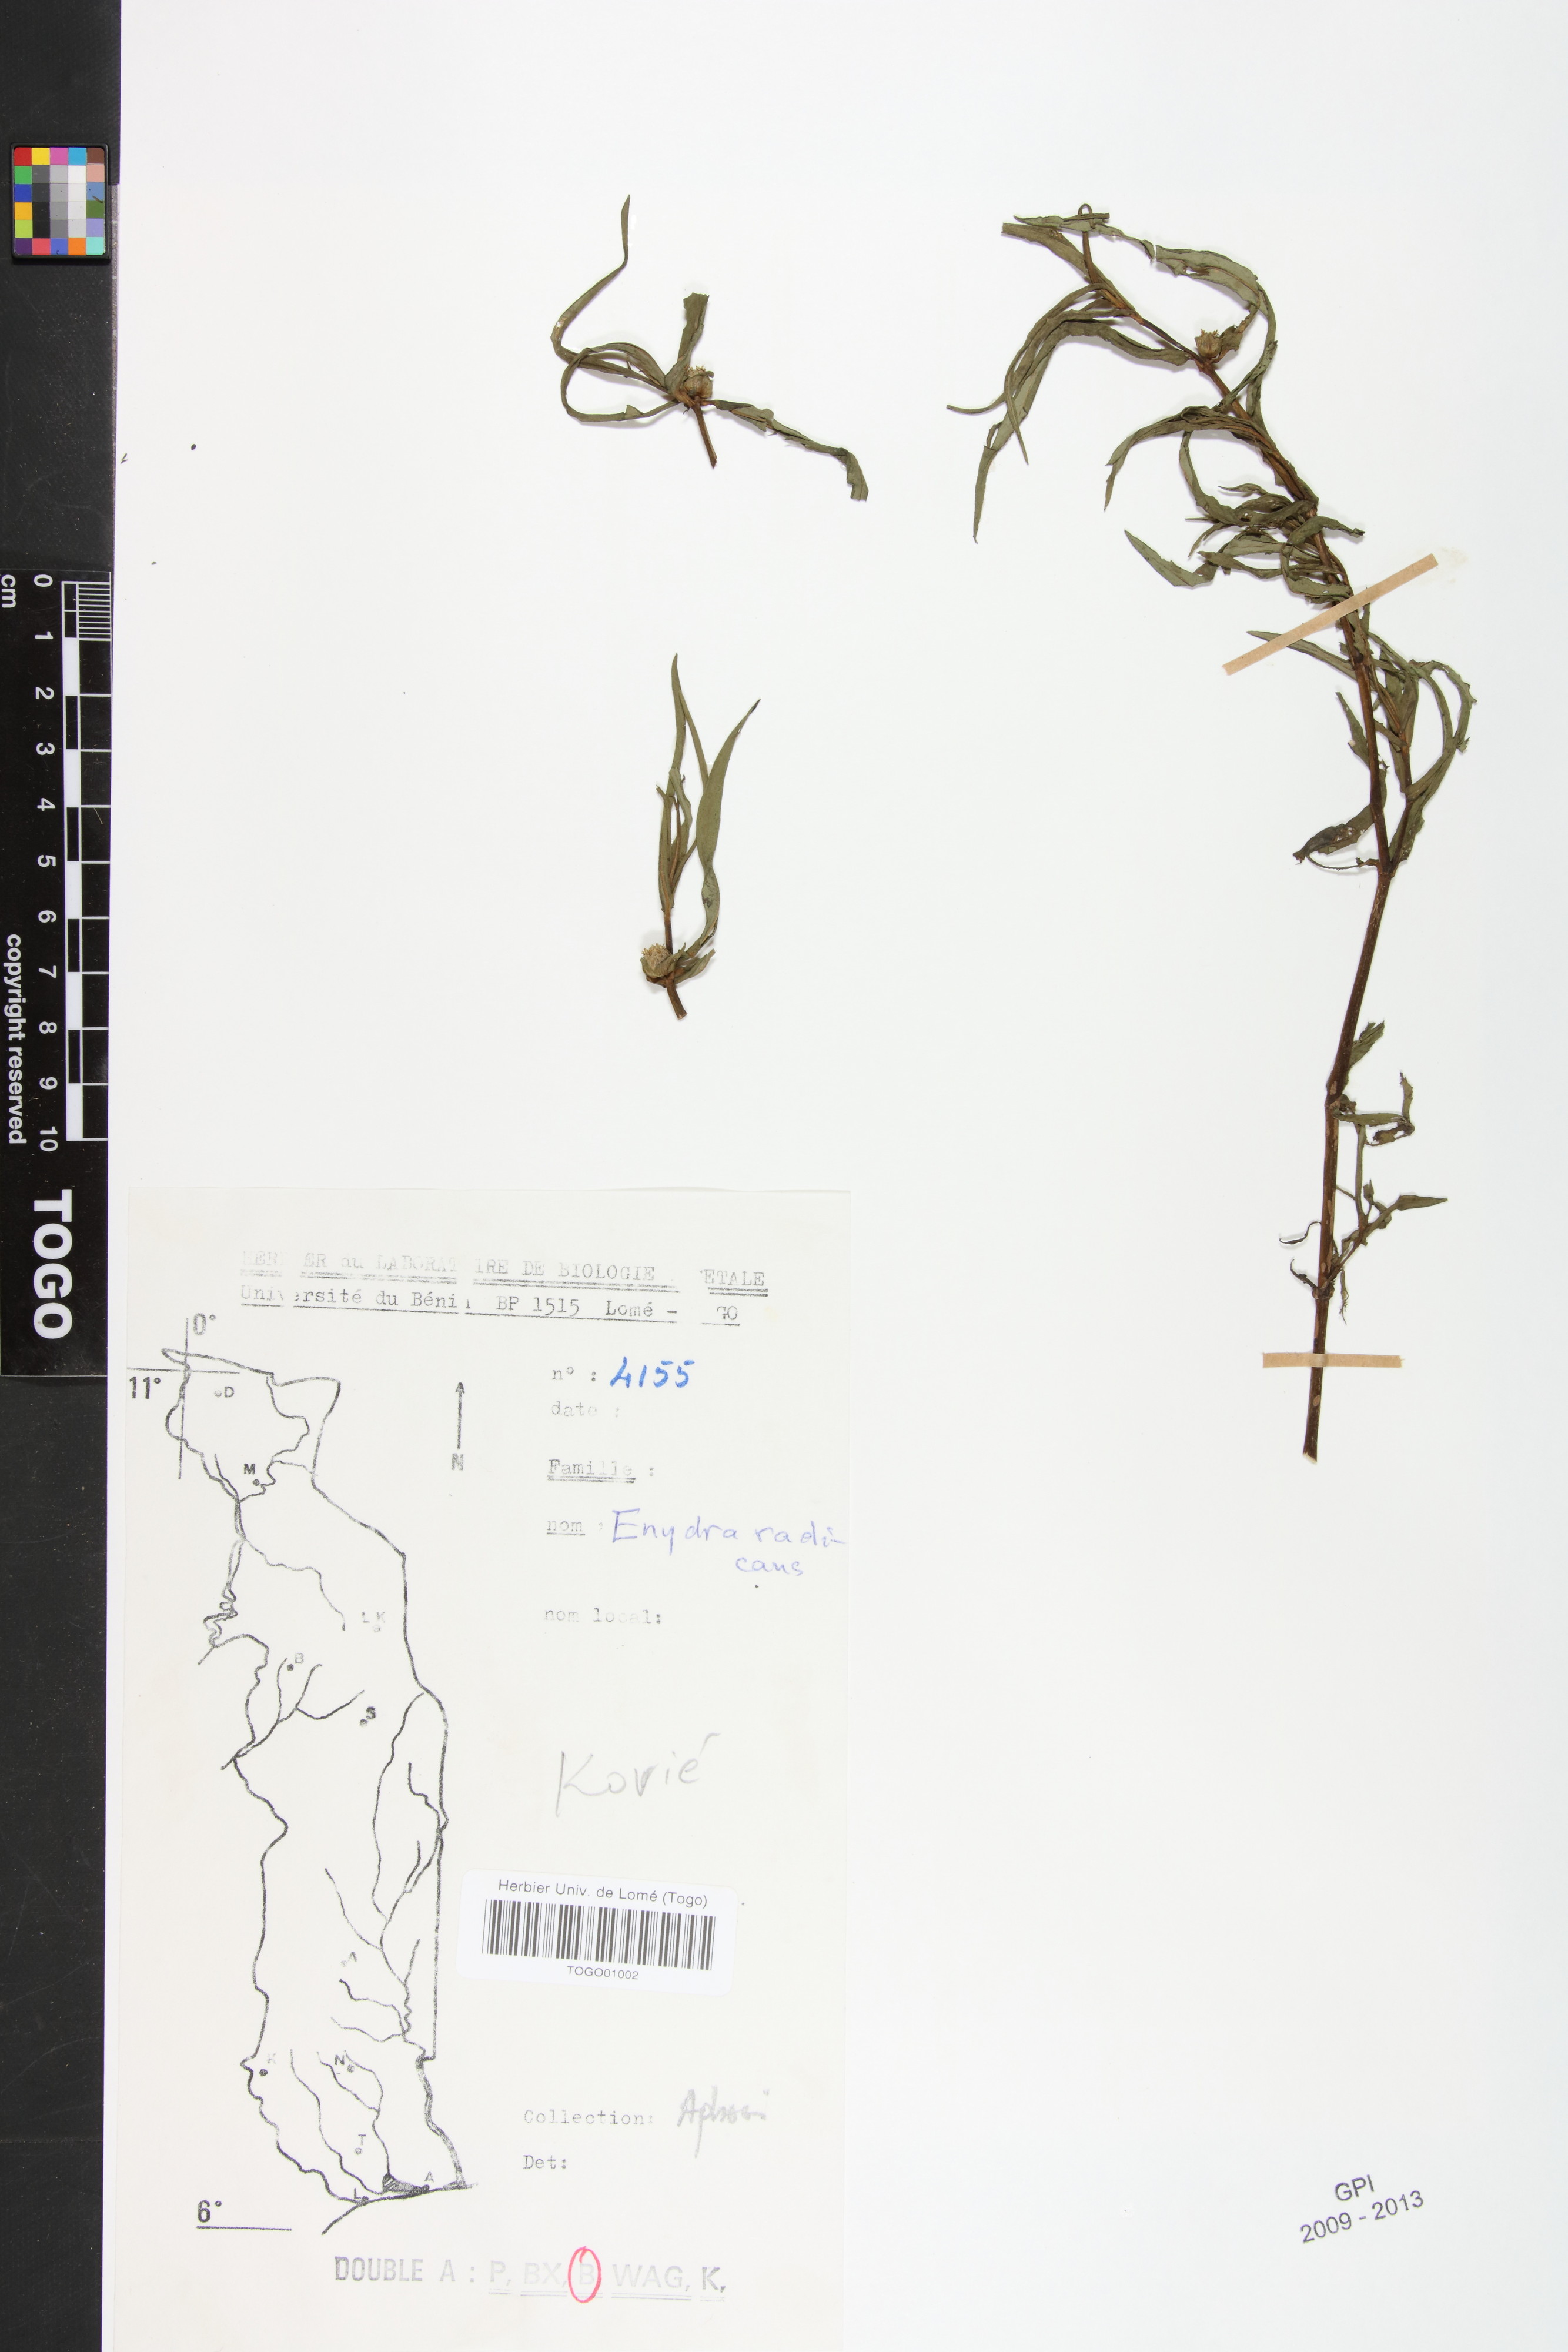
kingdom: Plantae
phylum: Tracheophyta
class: Magnoliopsida
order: Asterales
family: Asteraceae
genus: Enydra
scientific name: Enydra radicans
